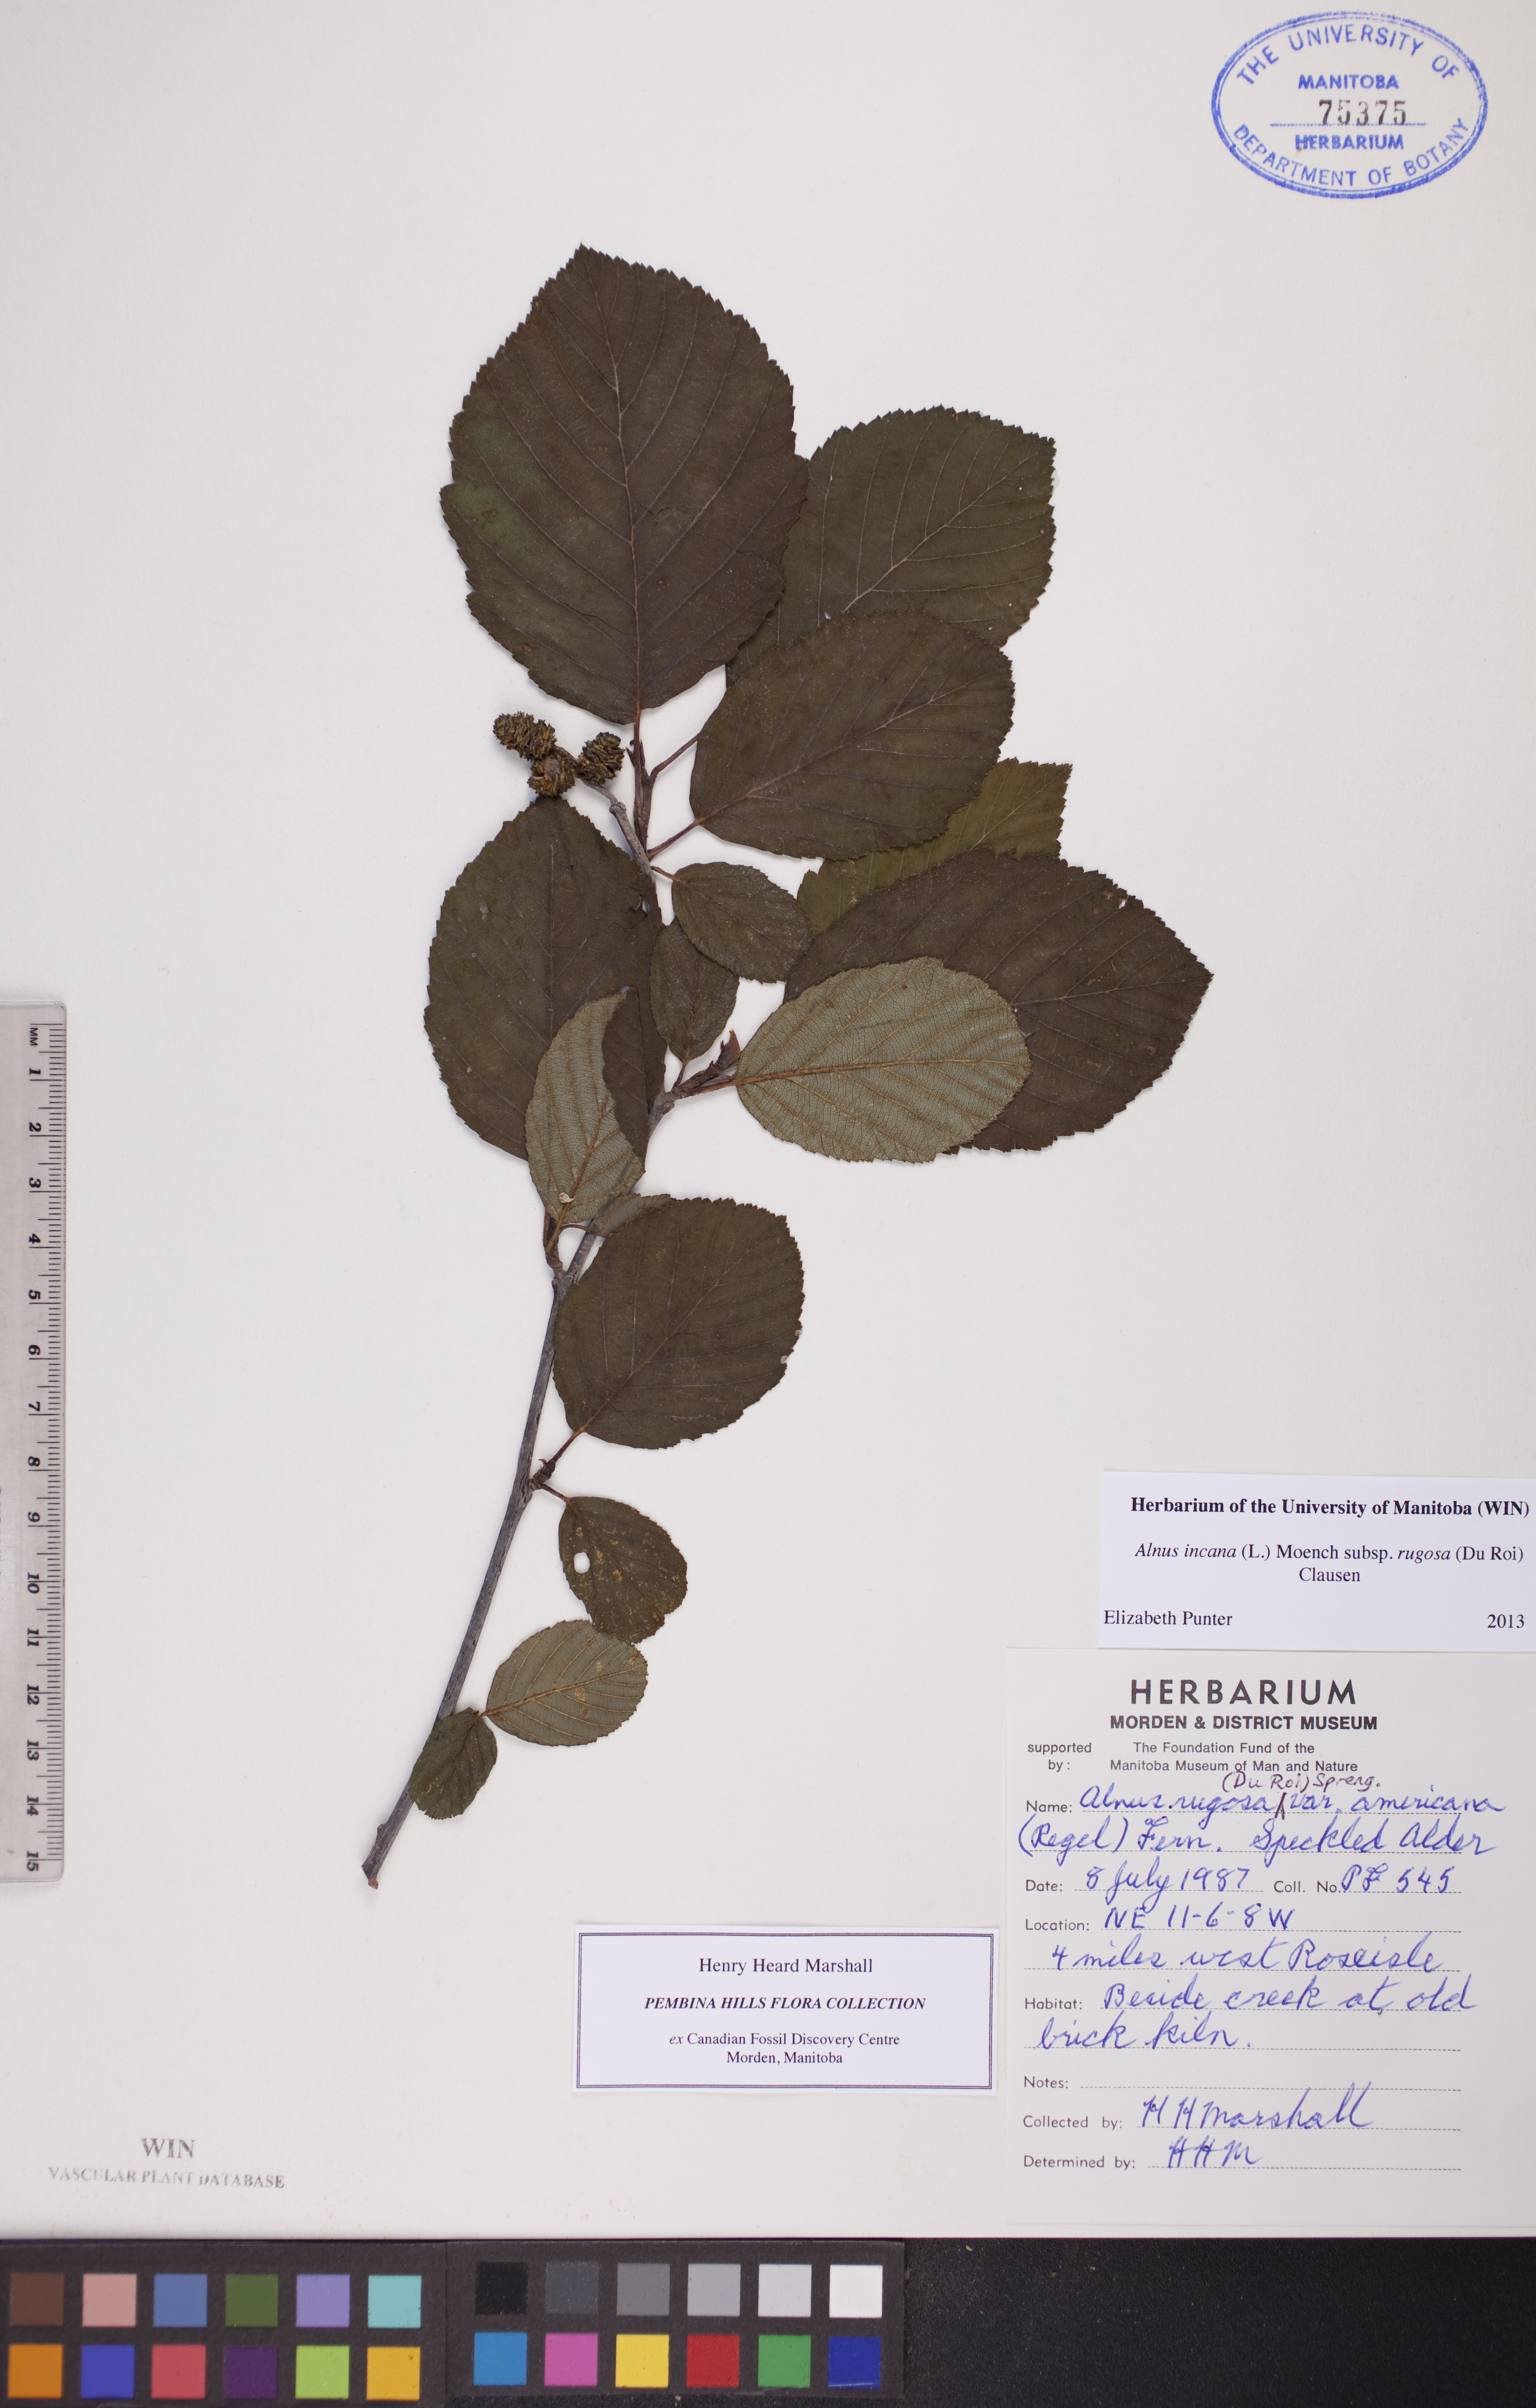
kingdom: Plantae
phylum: Tracheophyta
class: Magnoliopsida
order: Fagales
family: Betulaceae
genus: Alnus
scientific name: Alnus incana
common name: Grey alder
